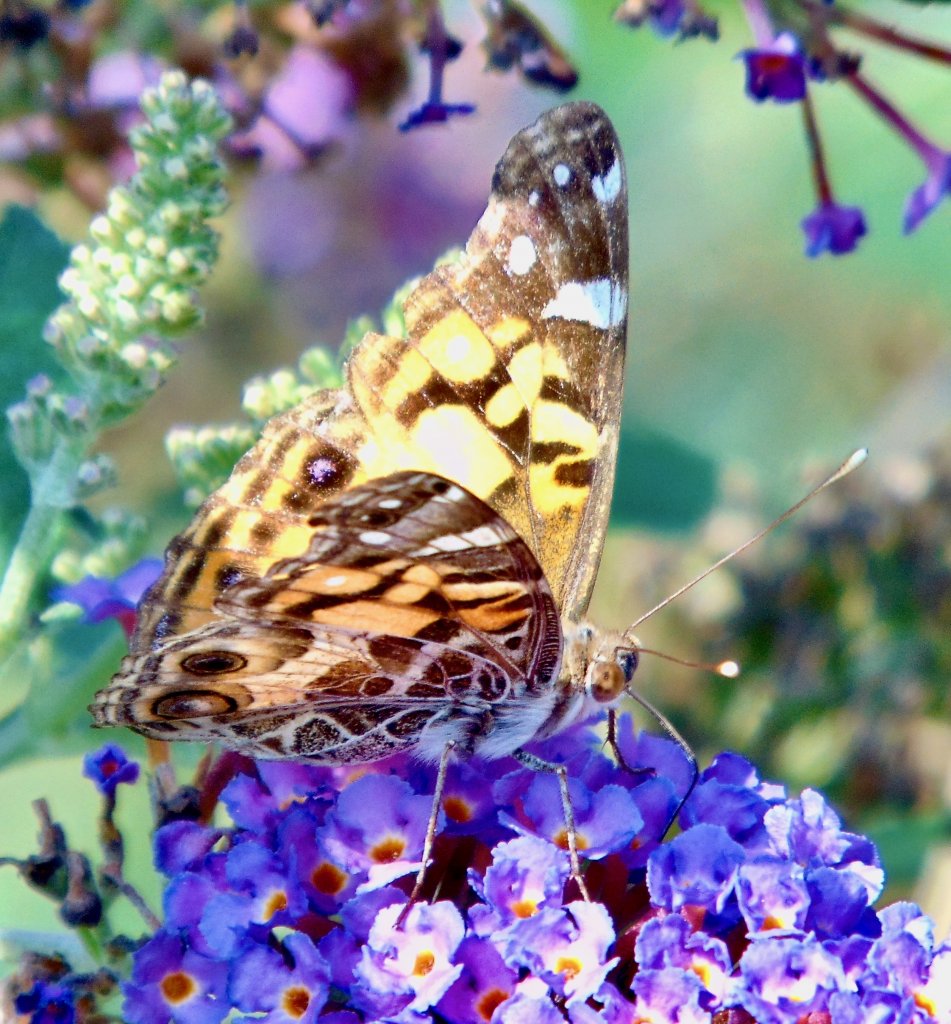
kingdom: Animalia
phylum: Arthropoda
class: Insecta
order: Lepidoptera
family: Nymphalidae
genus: Vanessa
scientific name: Vanessa virginiensis
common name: American Lady
